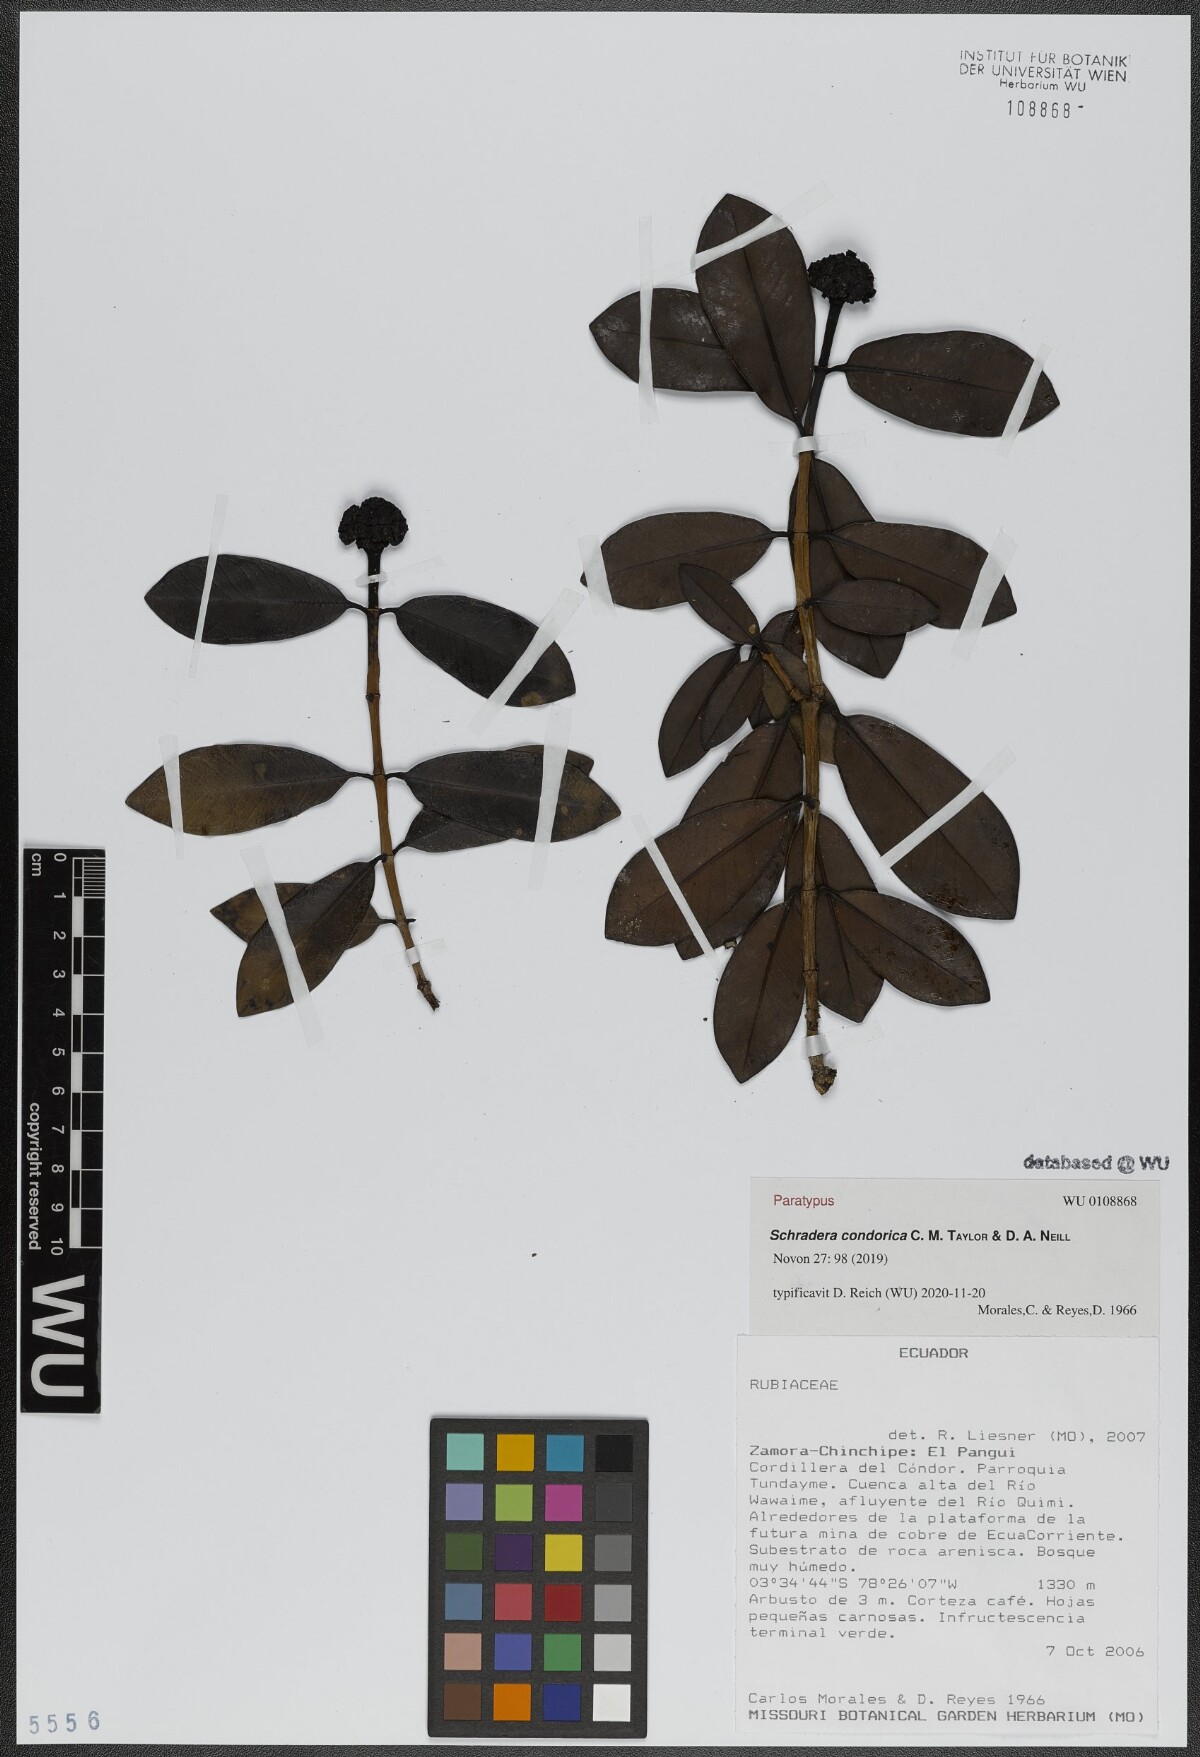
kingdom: Plantae
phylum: Tracheophyta
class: Magnoliopsida
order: Gentianales
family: Rubiaceae
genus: Schradera
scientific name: Schradera condorica
